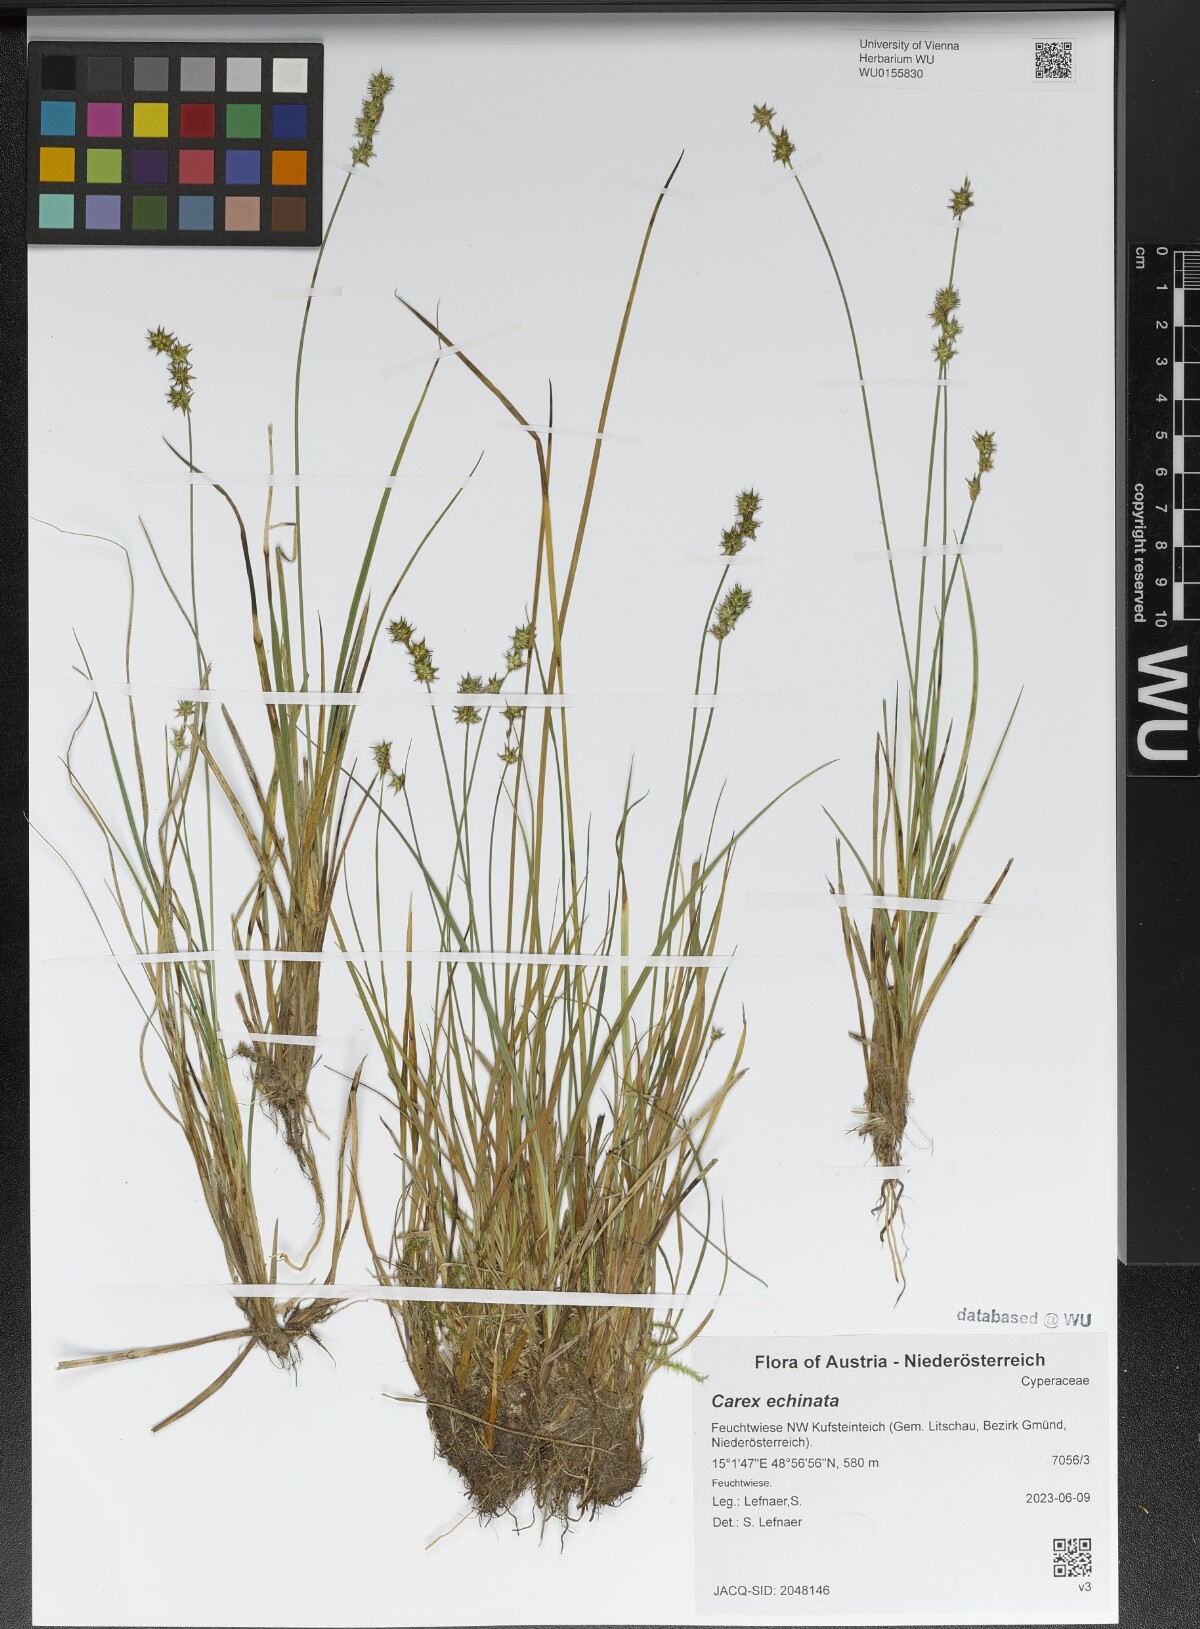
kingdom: Plantae
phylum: Tracheophyta
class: Liliopsida
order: Poales
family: Cyperaceae
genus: Carex
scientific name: Carex echinata
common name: Star sedge
